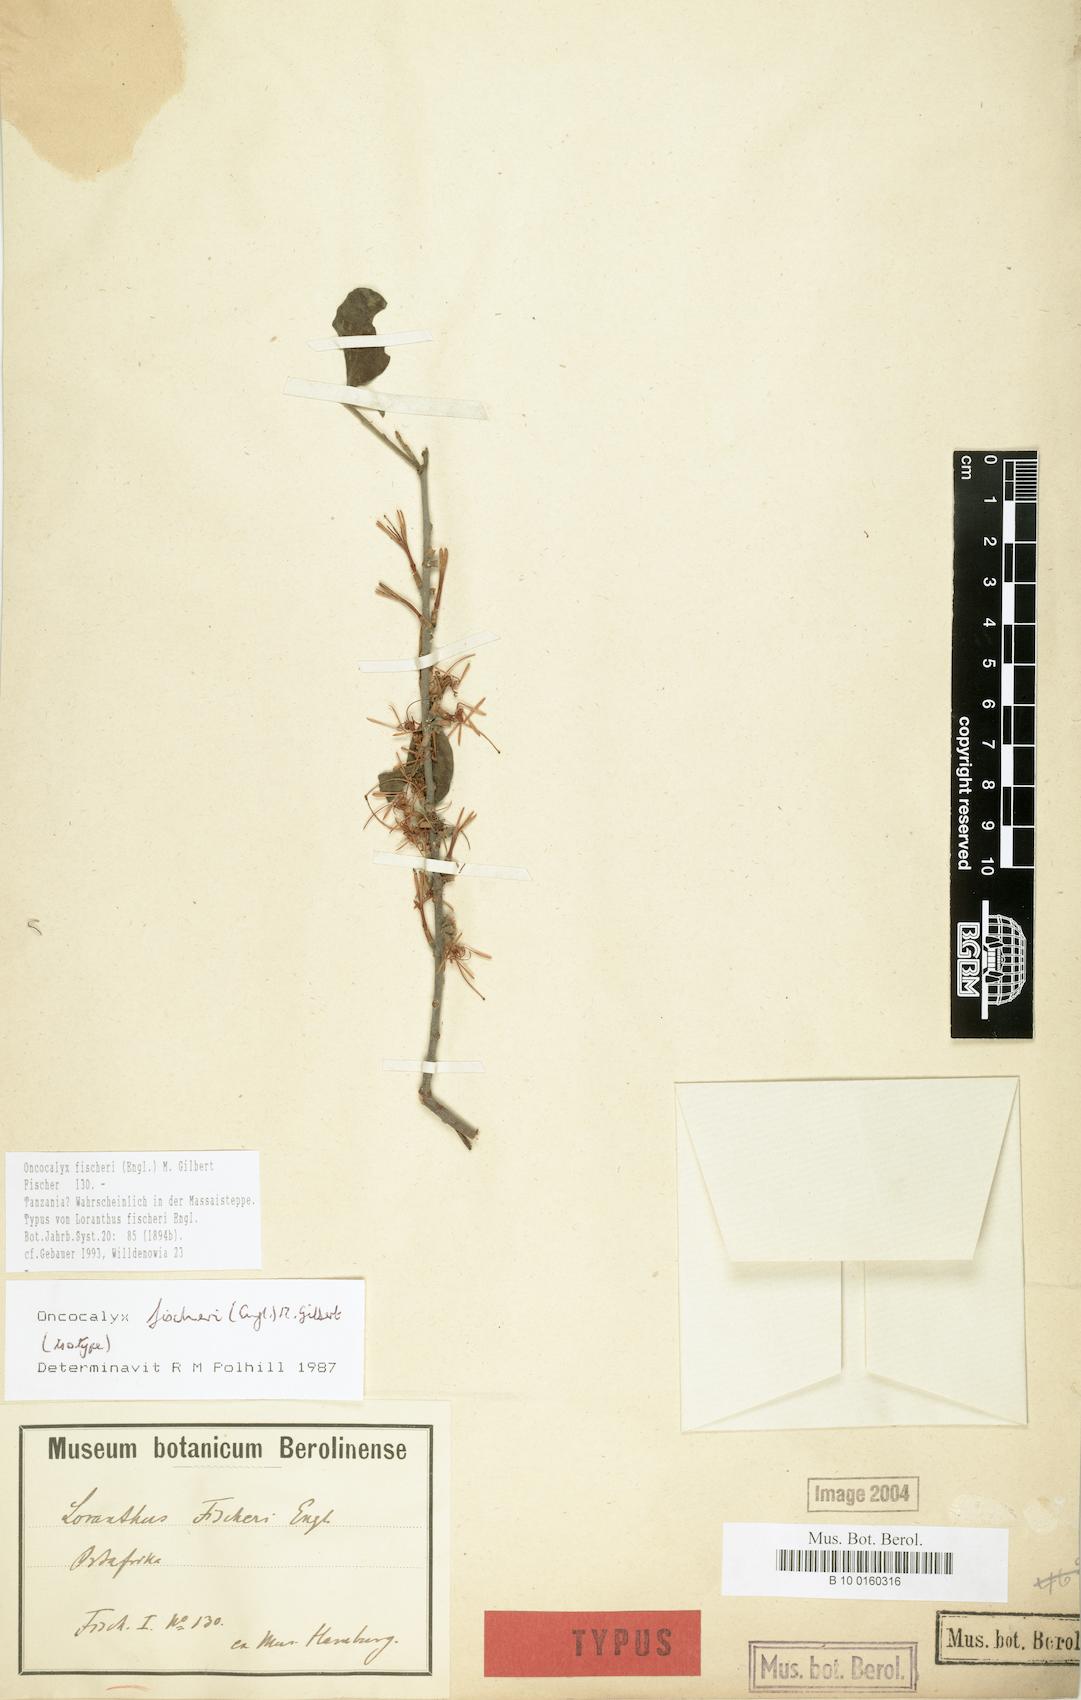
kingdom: Plantae
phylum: Tracheophyta
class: Magnoliopsida
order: Santalales
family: Loranthaceae
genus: Oncocalyx
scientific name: Oncocalyx fischeri
